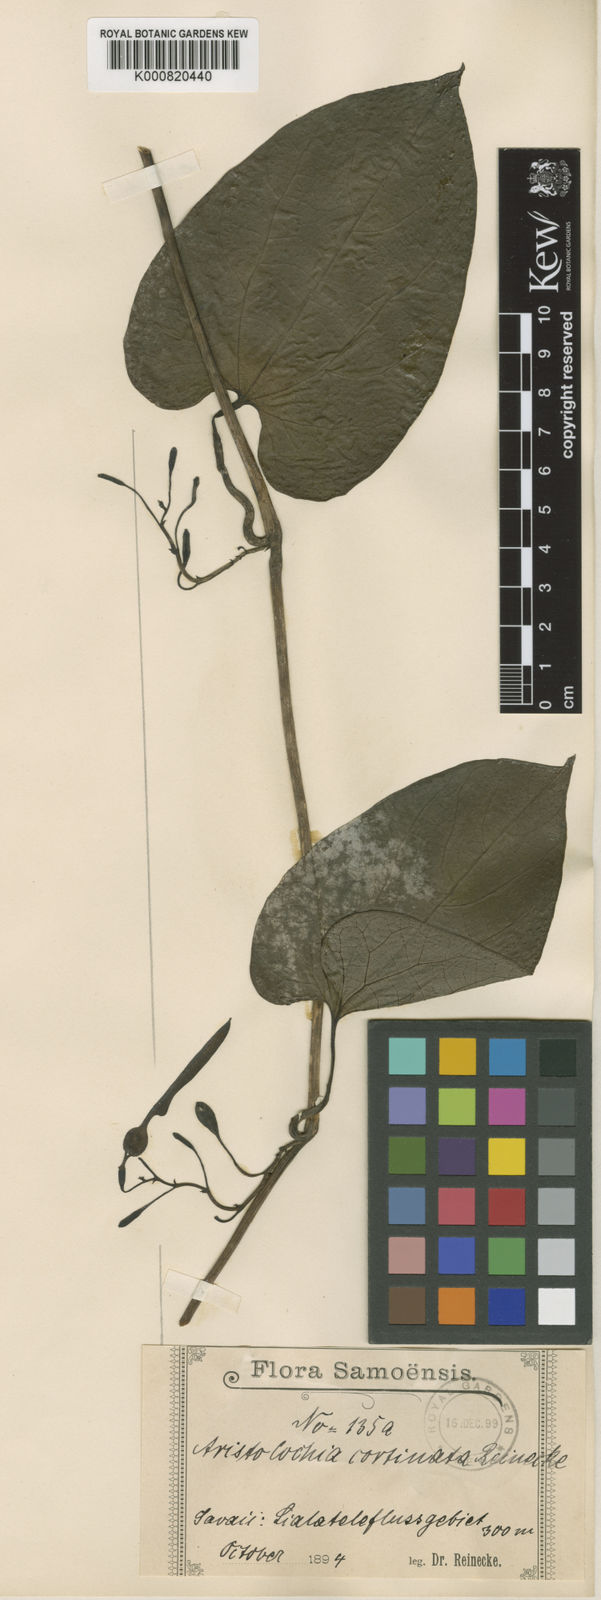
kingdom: Plantae
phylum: Tracheophyta
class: Magnoliopsida
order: Piperales
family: Aristolochiaceae
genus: Aristolochia
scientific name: Aristolochia cortinata
